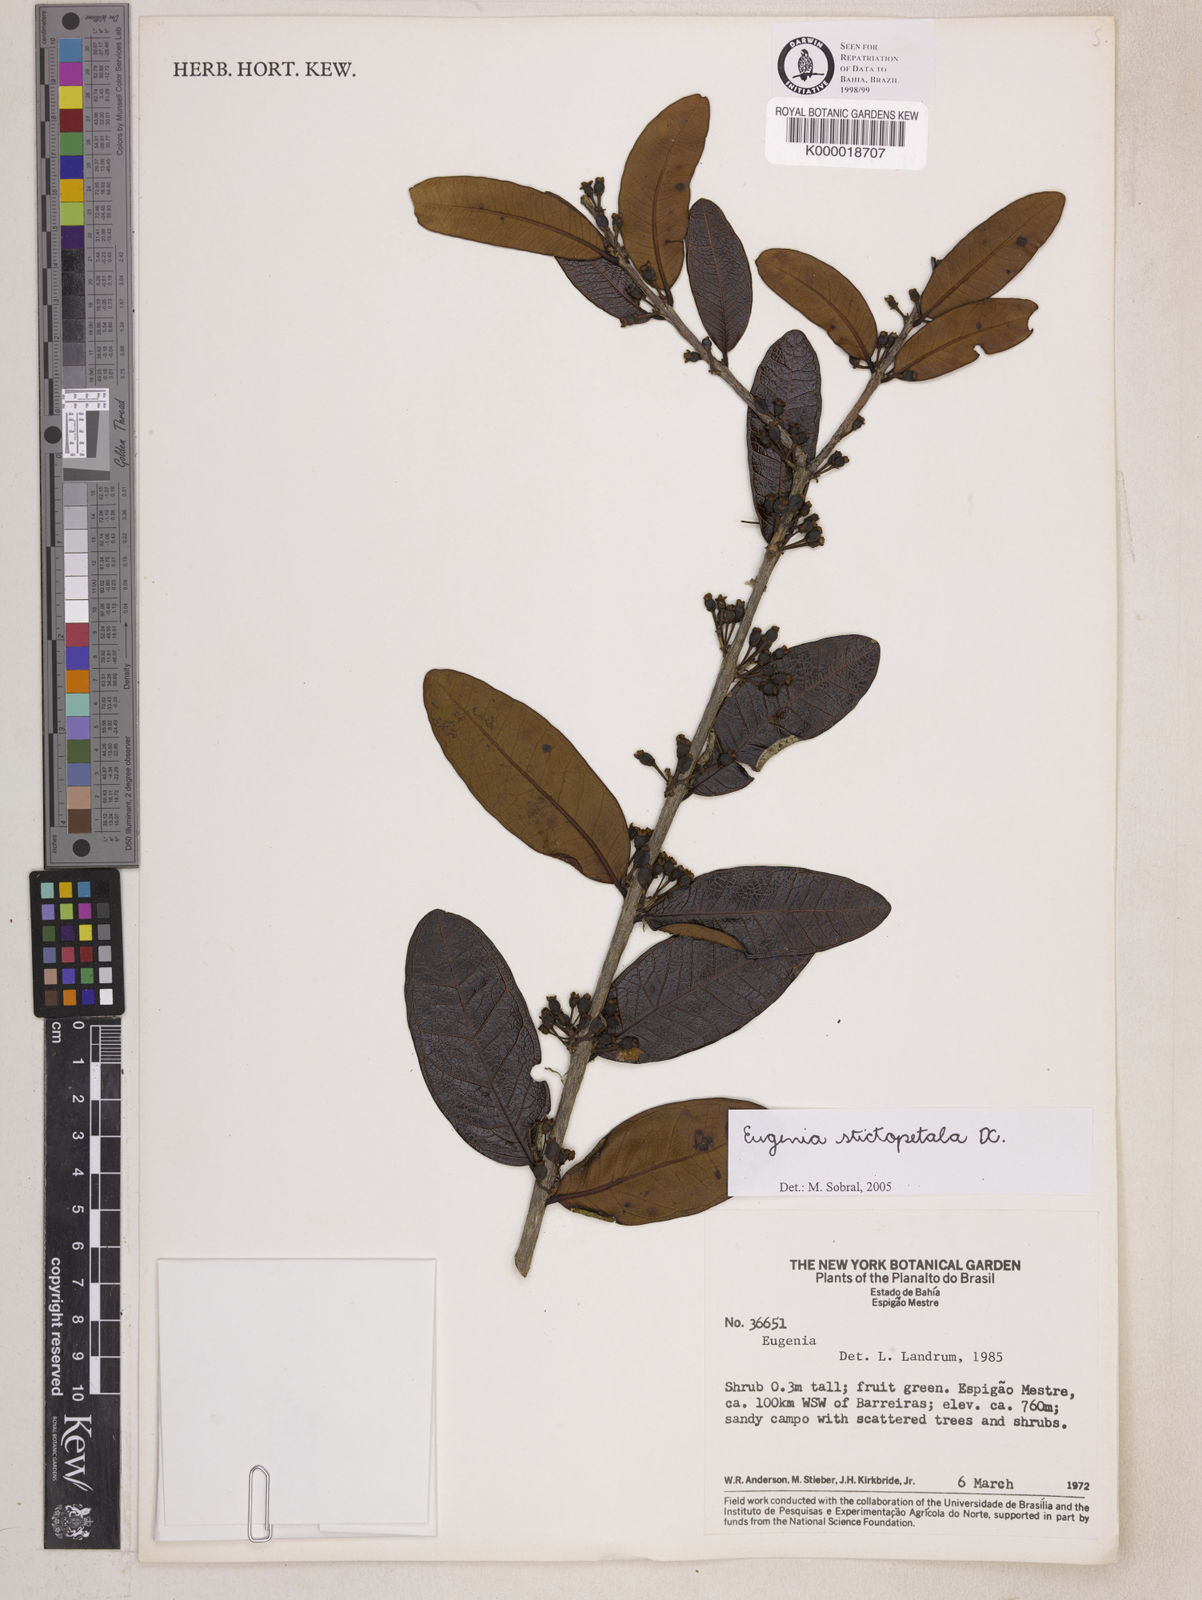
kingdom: Plantae
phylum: Tracheophyta
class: Magnoliopsida
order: Myrtales
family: Myrtaceae
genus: Eugenia
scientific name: Eugenia stictopetala
